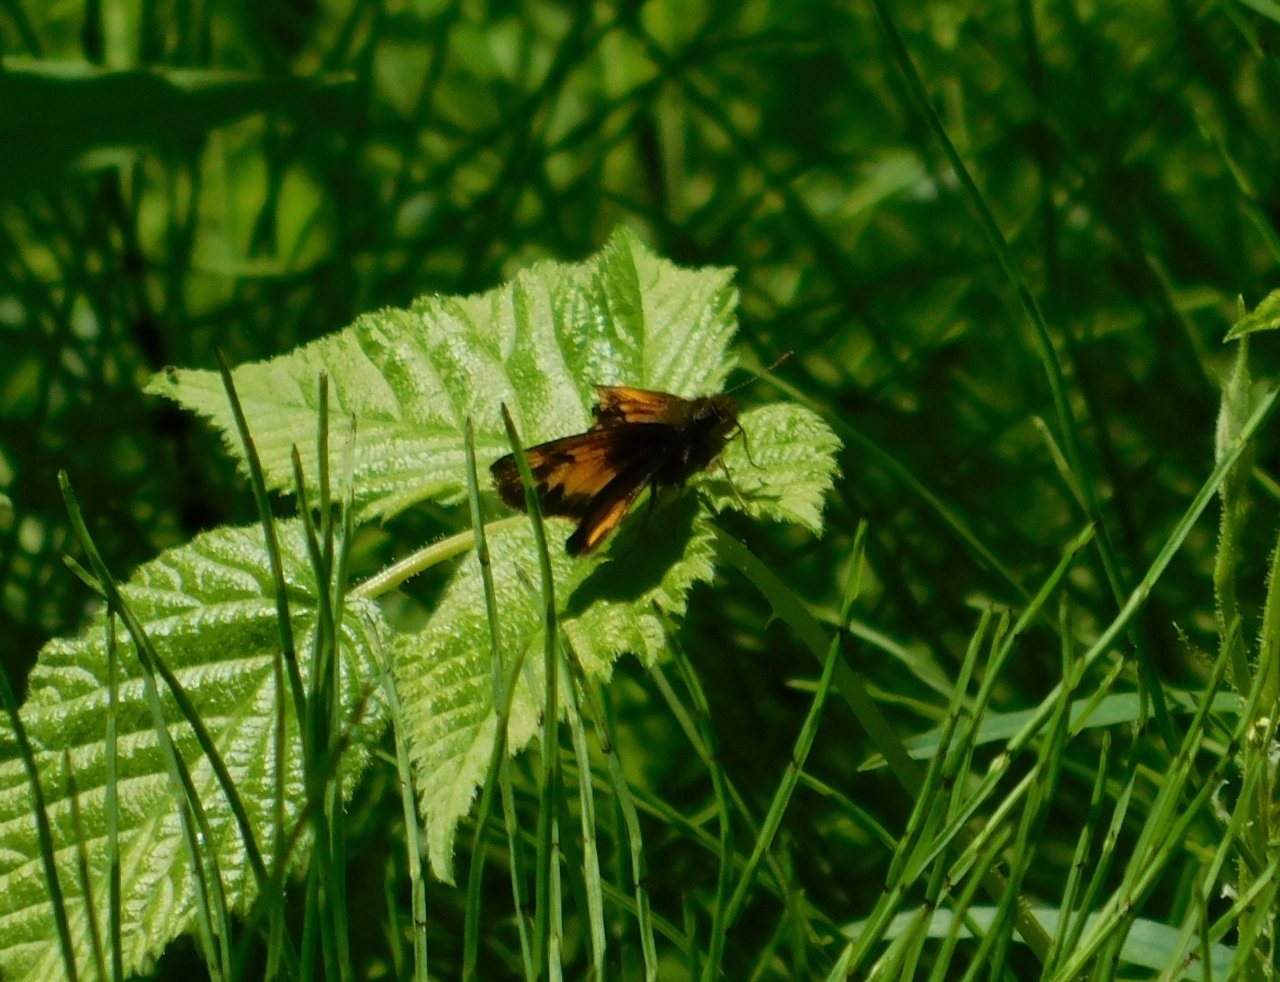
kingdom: Animalia
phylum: Arthropoda
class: Insecta
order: Lepidoptera
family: Hesperiidae
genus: Lon
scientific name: Lon hobomok
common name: Hobomok Skipper
